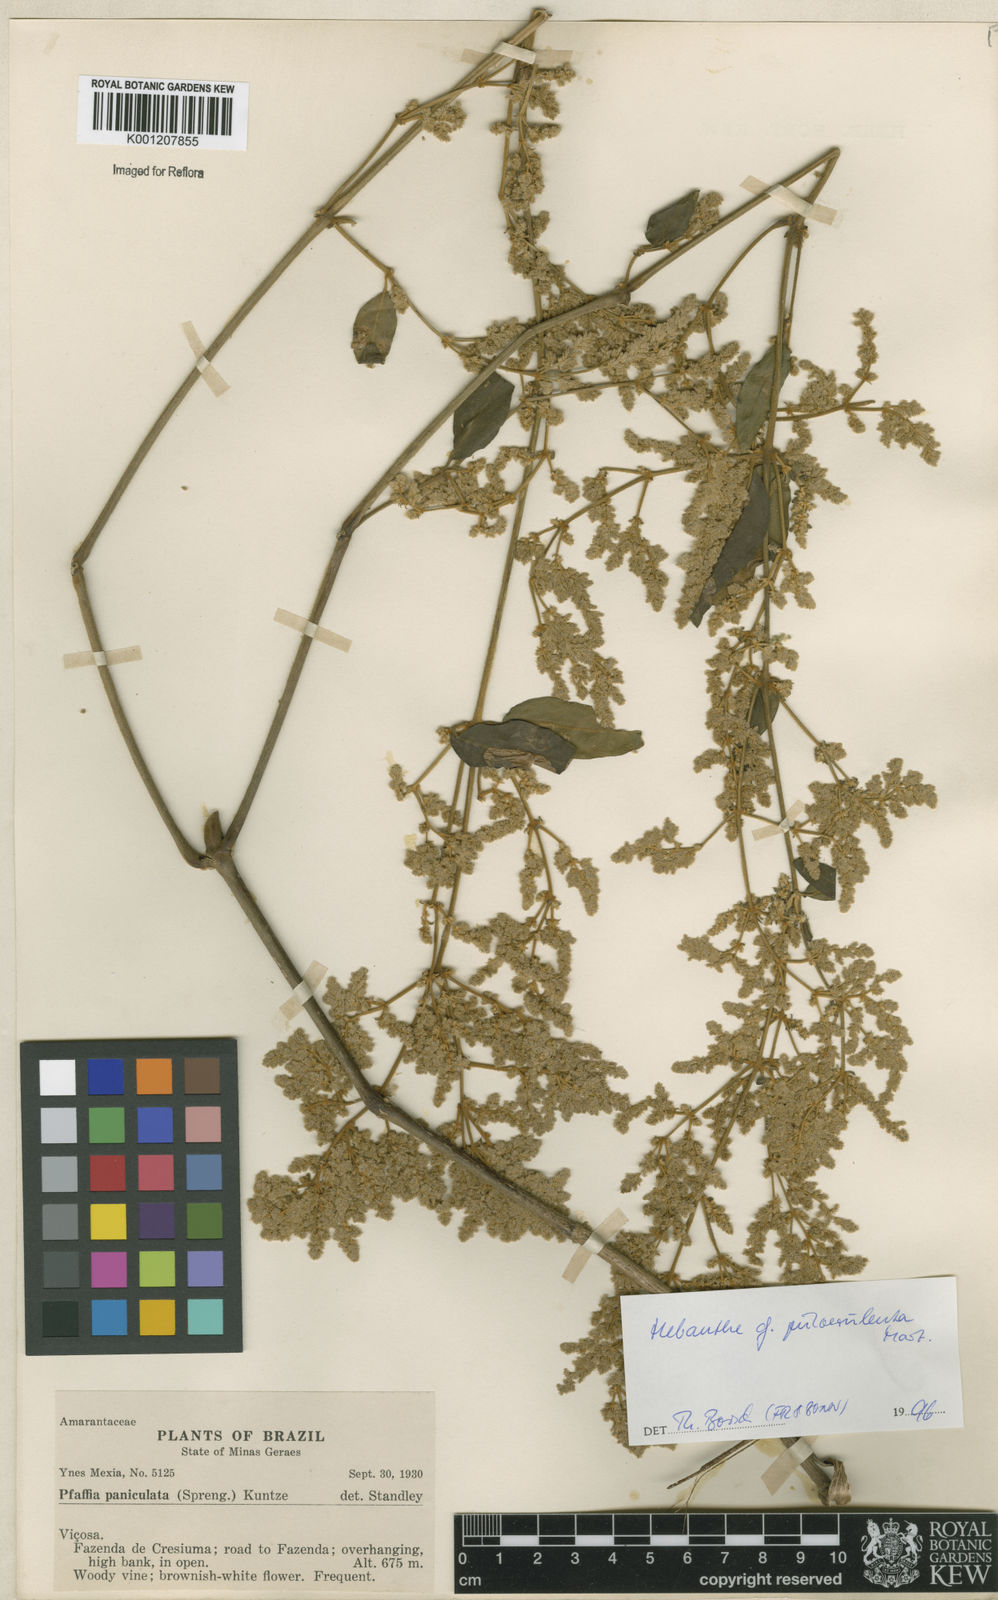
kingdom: Plantae
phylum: Tracheophyta
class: Magnoliopsida
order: Ericales
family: Symplocaceae
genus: Symplocos
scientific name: Symplocos estrellensis
